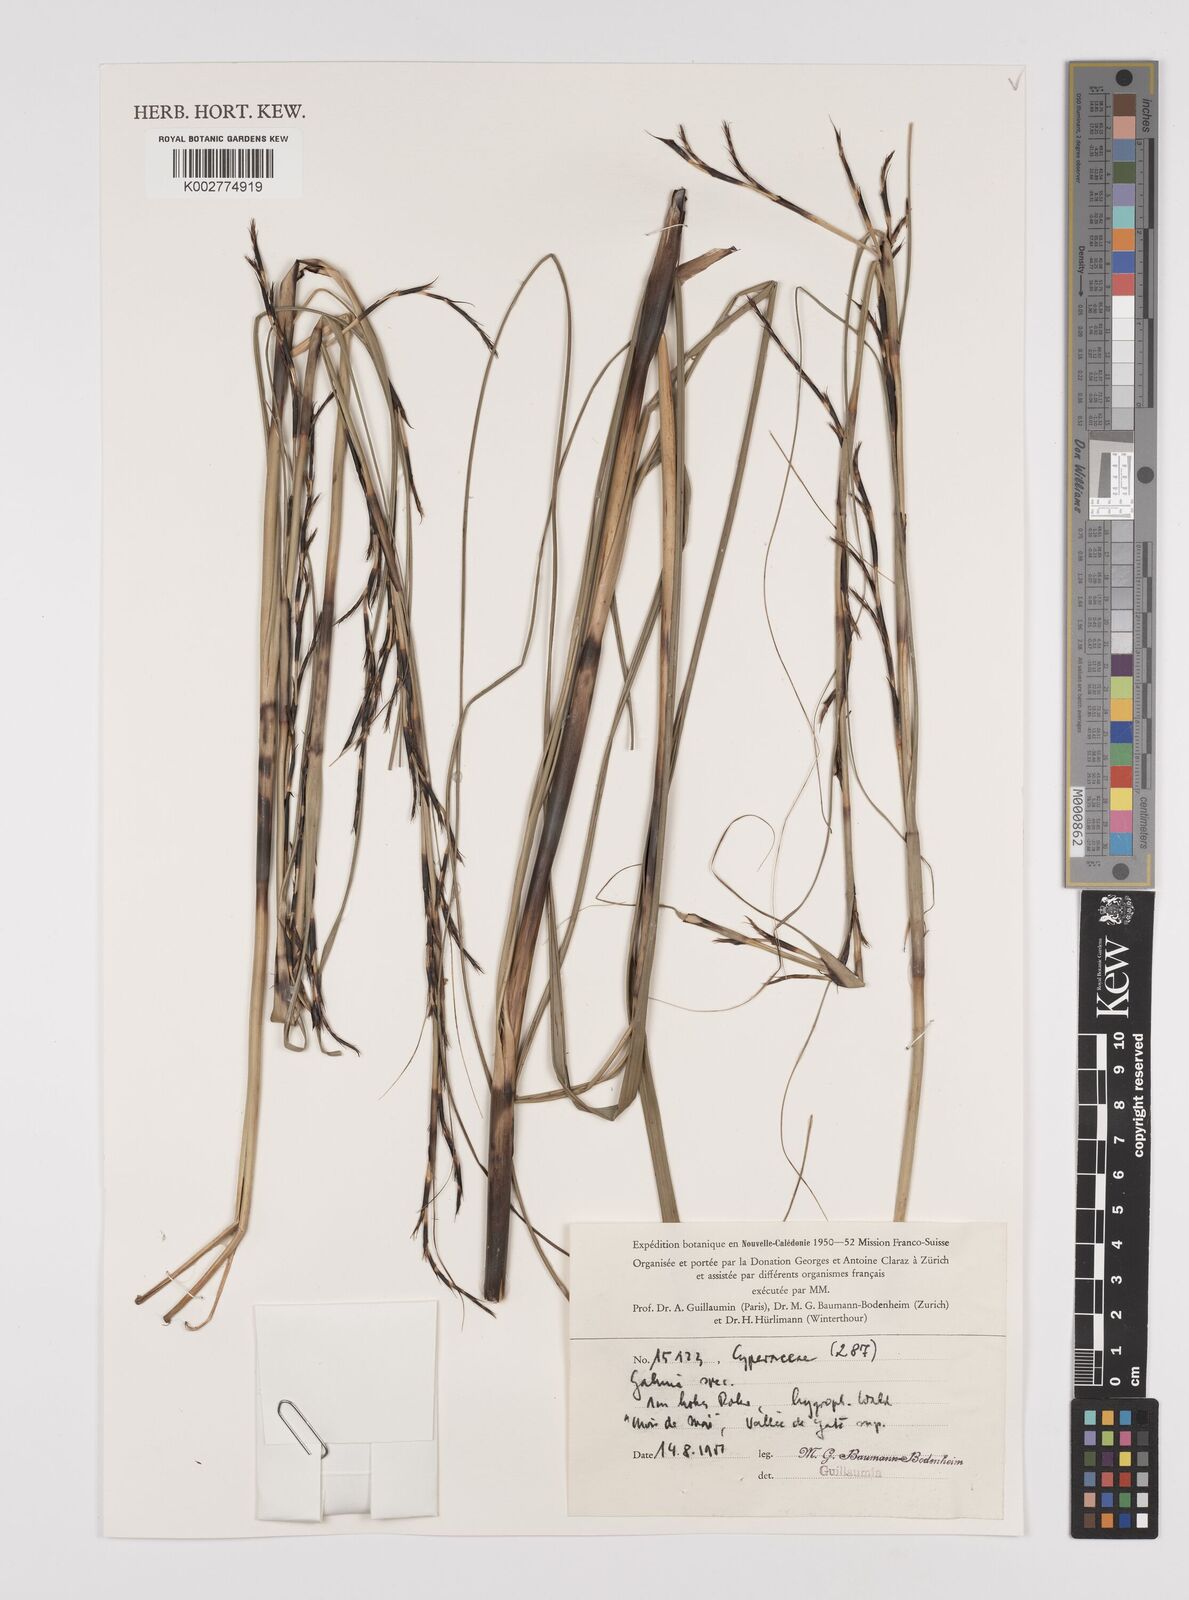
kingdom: Plantae
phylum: Tracheophyta
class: Liliopsida
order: Poales
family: Cyperaceae
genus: Gahnia
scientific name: Gahnia
